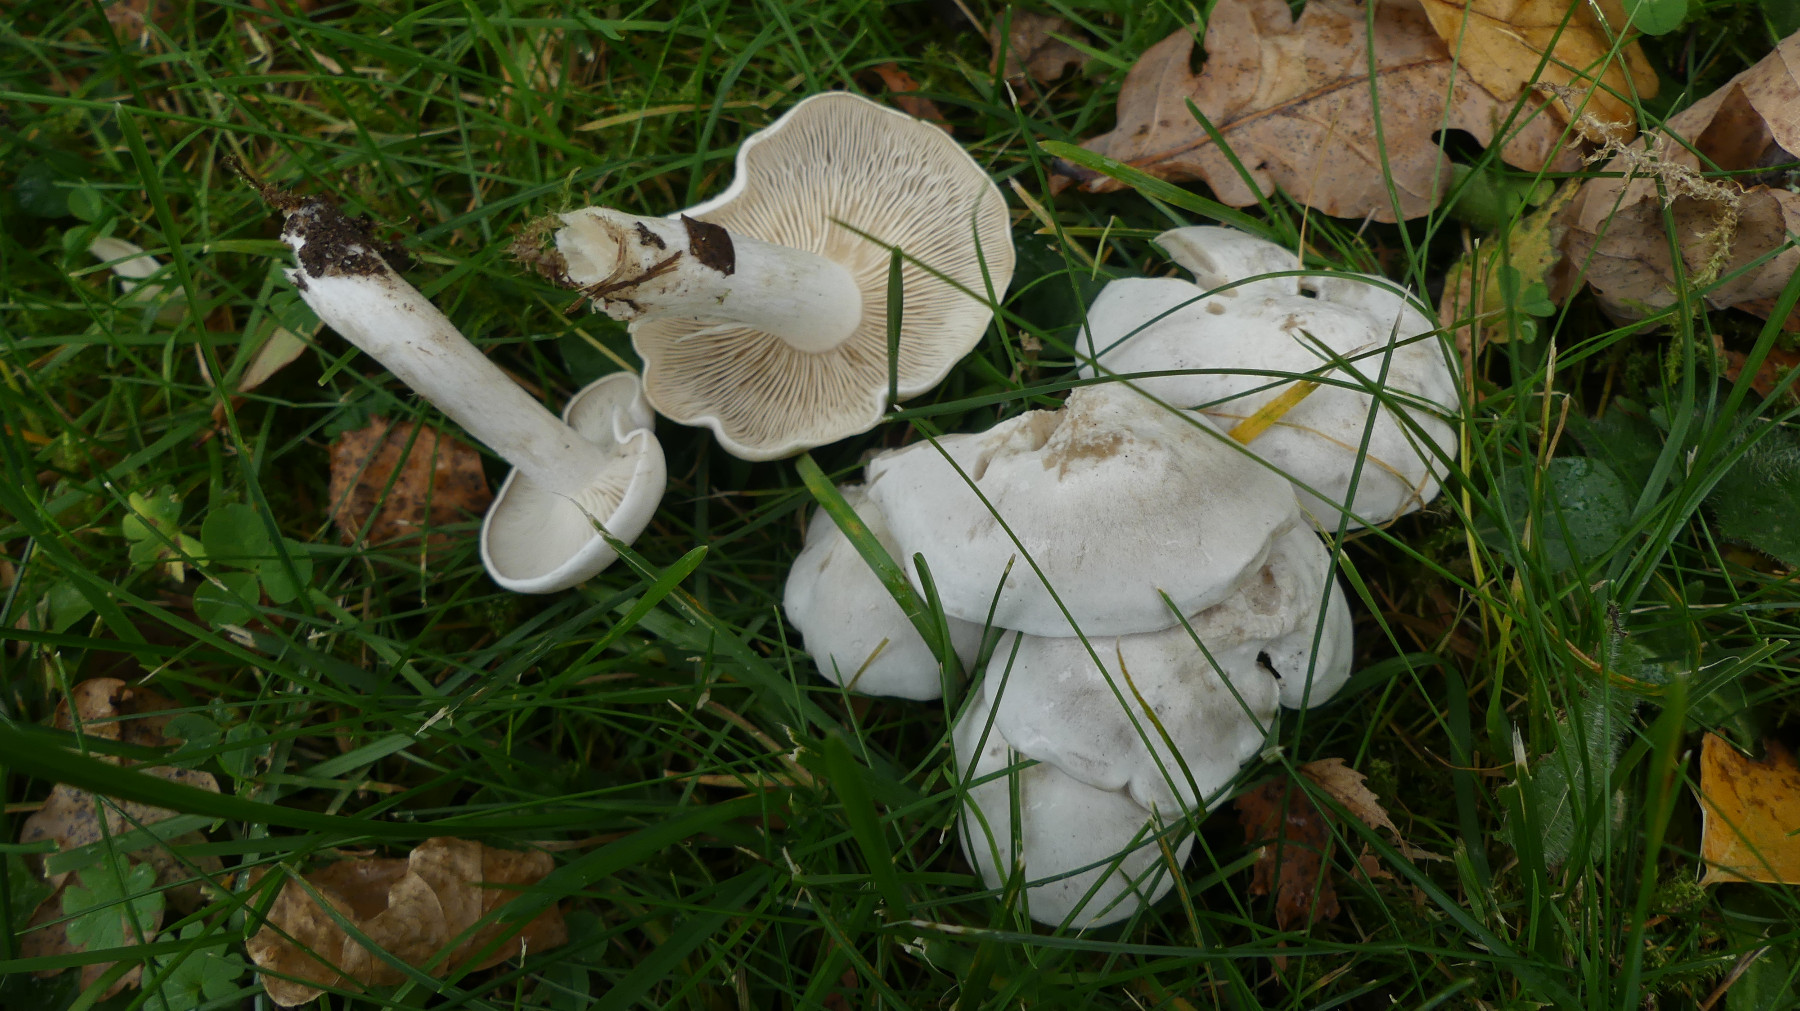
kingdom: Fungi
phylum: Basidiomycota
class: Agaricomycetes
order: Agaricales
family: Tricholomataceae
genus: Leucocybe
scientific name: Leucocybe connata
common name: knippe-tragthat
